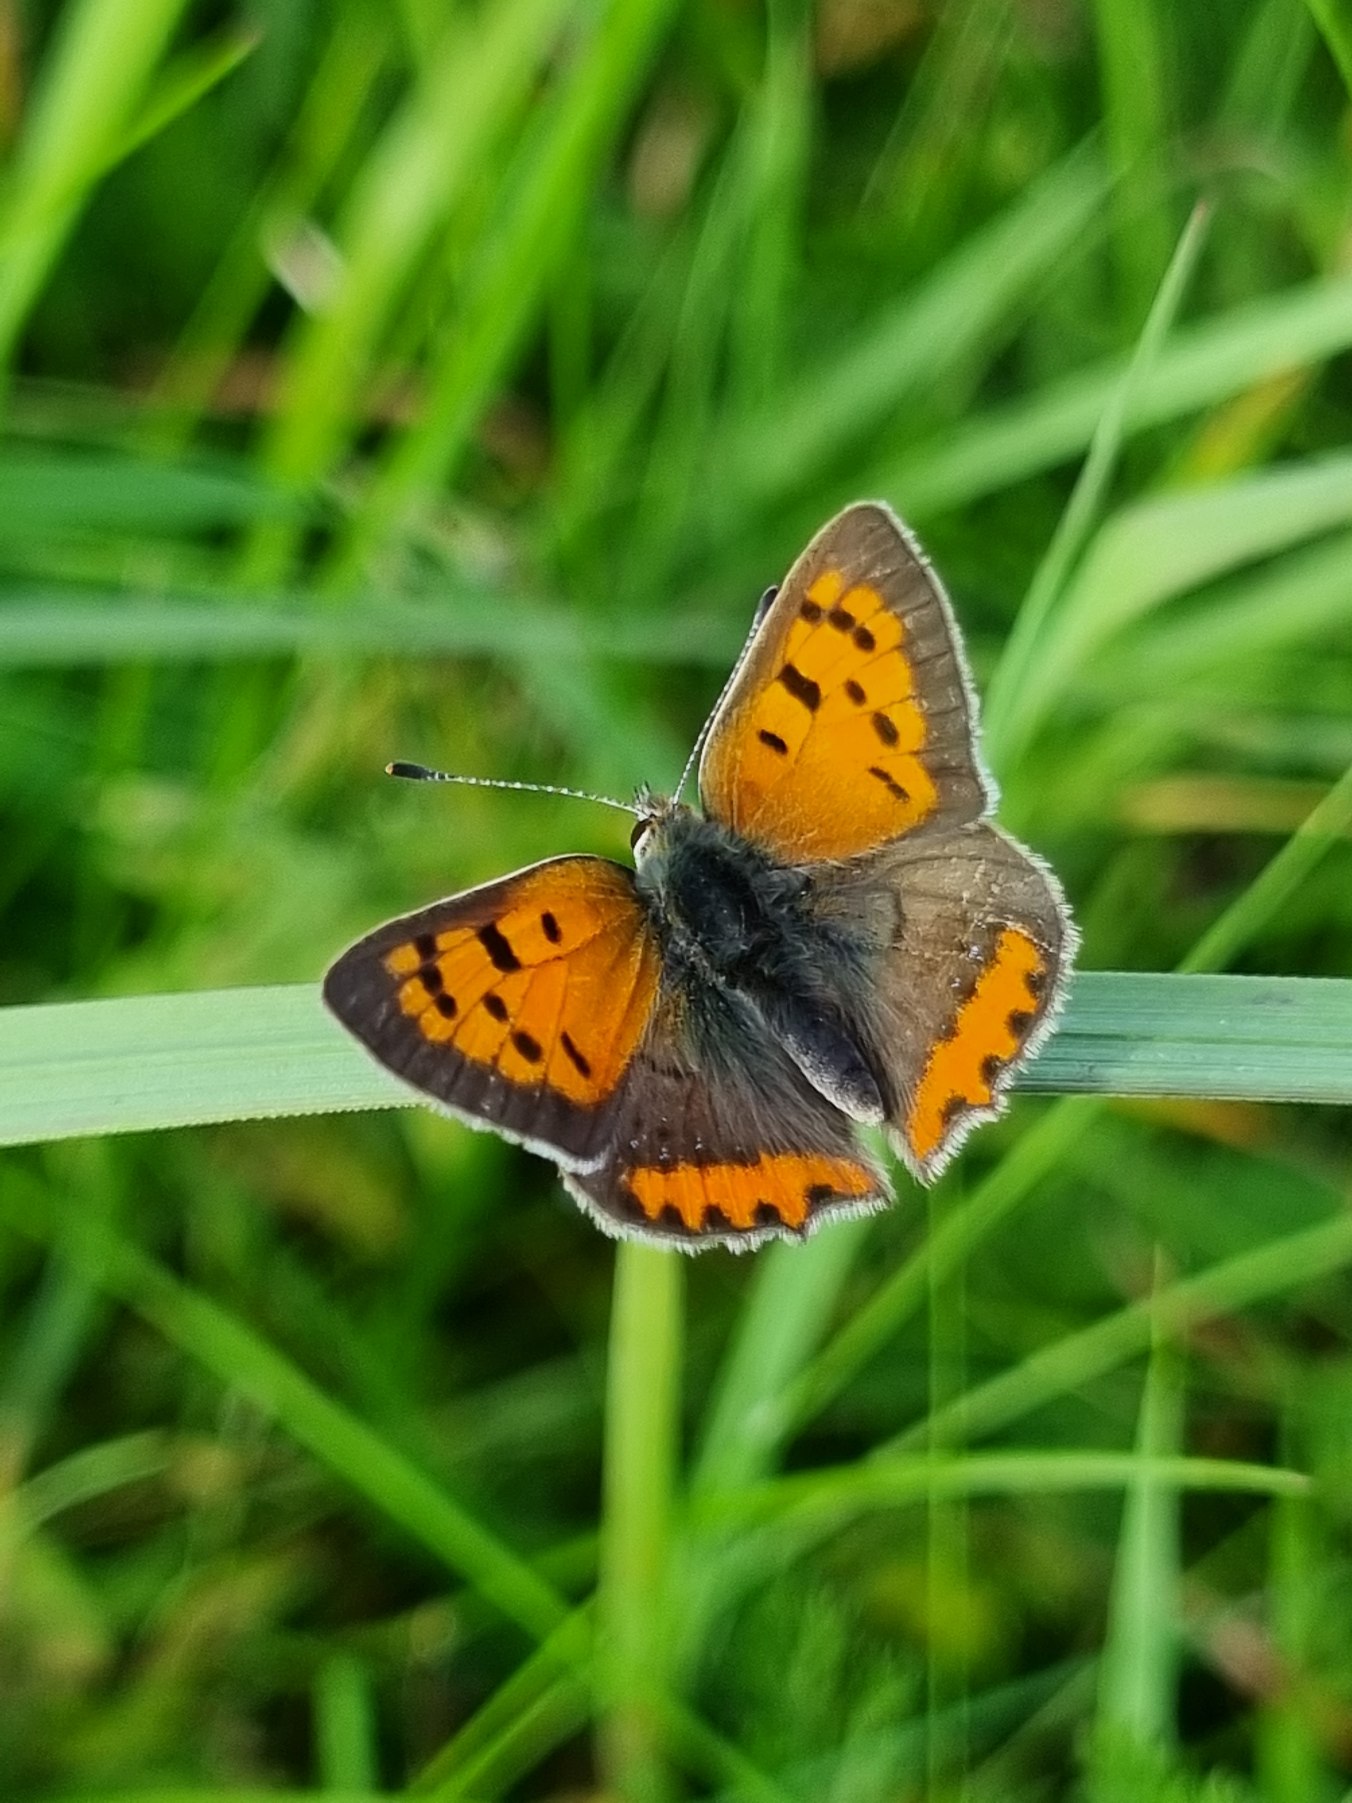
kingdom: Animalia
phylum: Arthropoda
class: Insecta
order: Lepidoptera
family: Lycaenidae
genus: Lycaena
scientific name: Lycaena phlaeas
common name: Lille ildfugl
